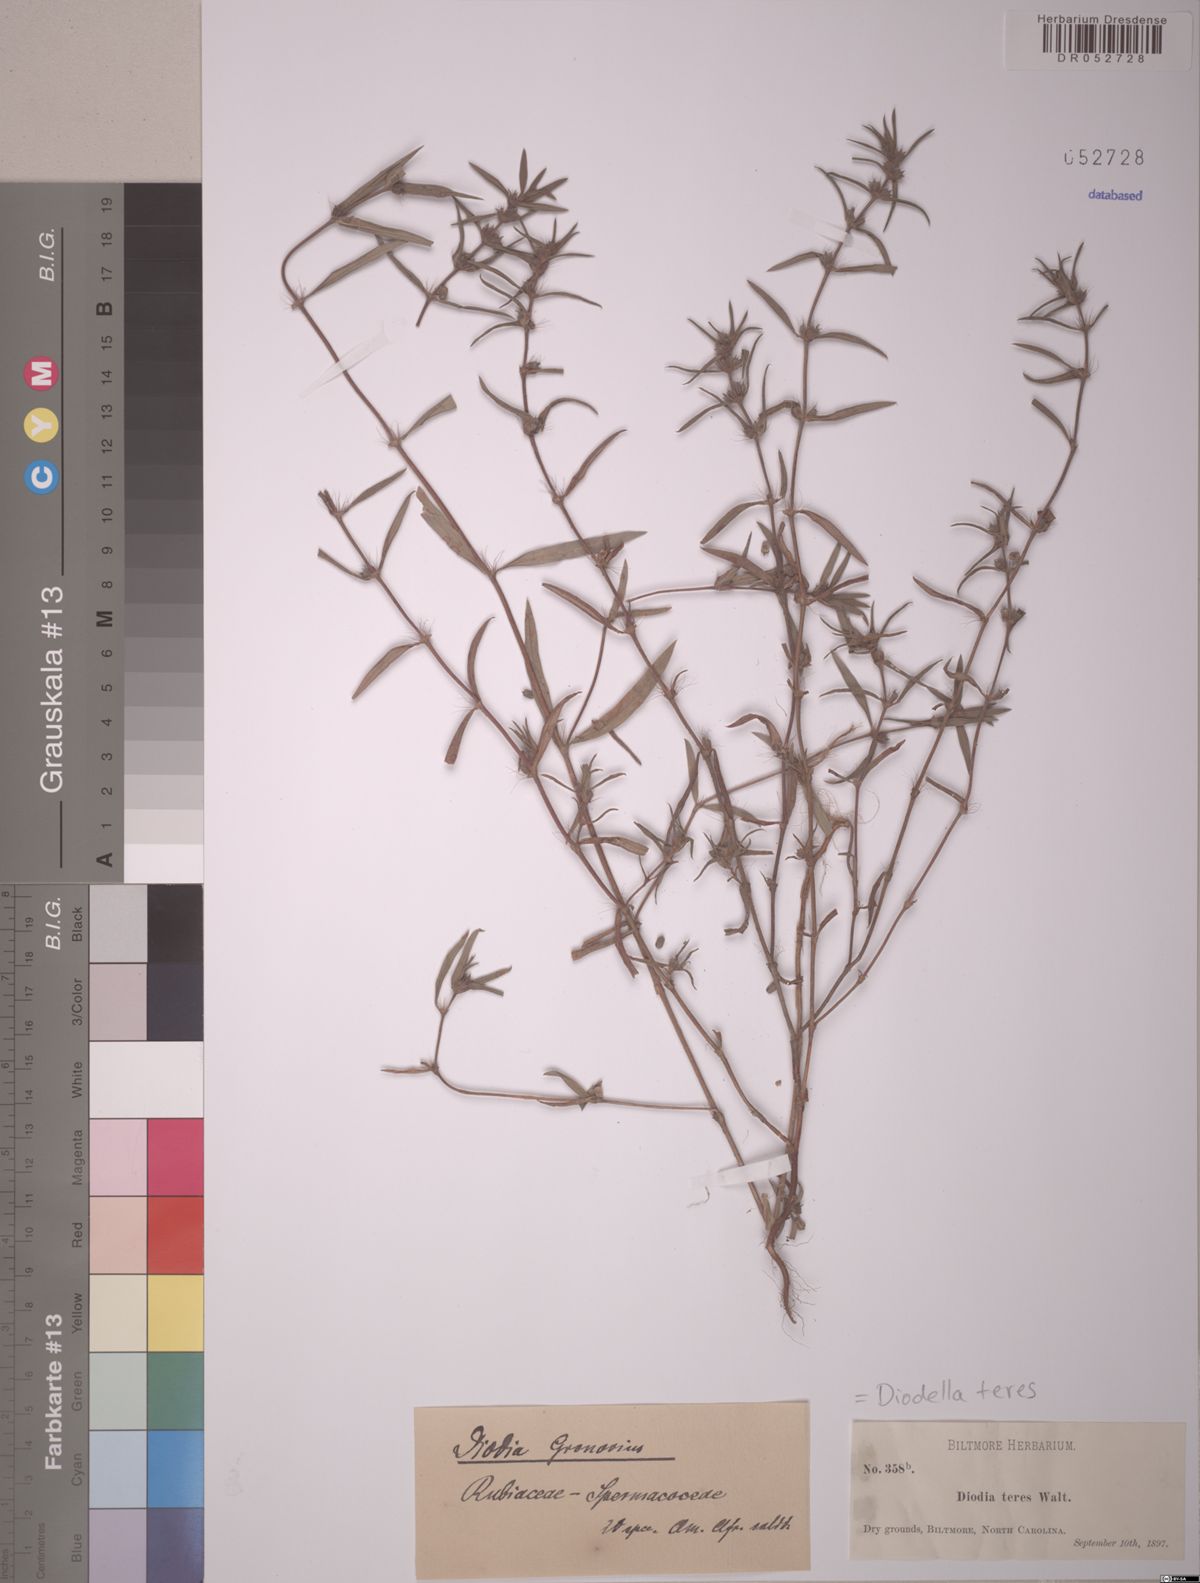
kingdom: Plantae
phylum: Tracheophyta
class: Magnoliopsida
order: Gentianales
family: Rubiaceae
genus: Hexasepalum
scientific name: Hexasepalum teres
